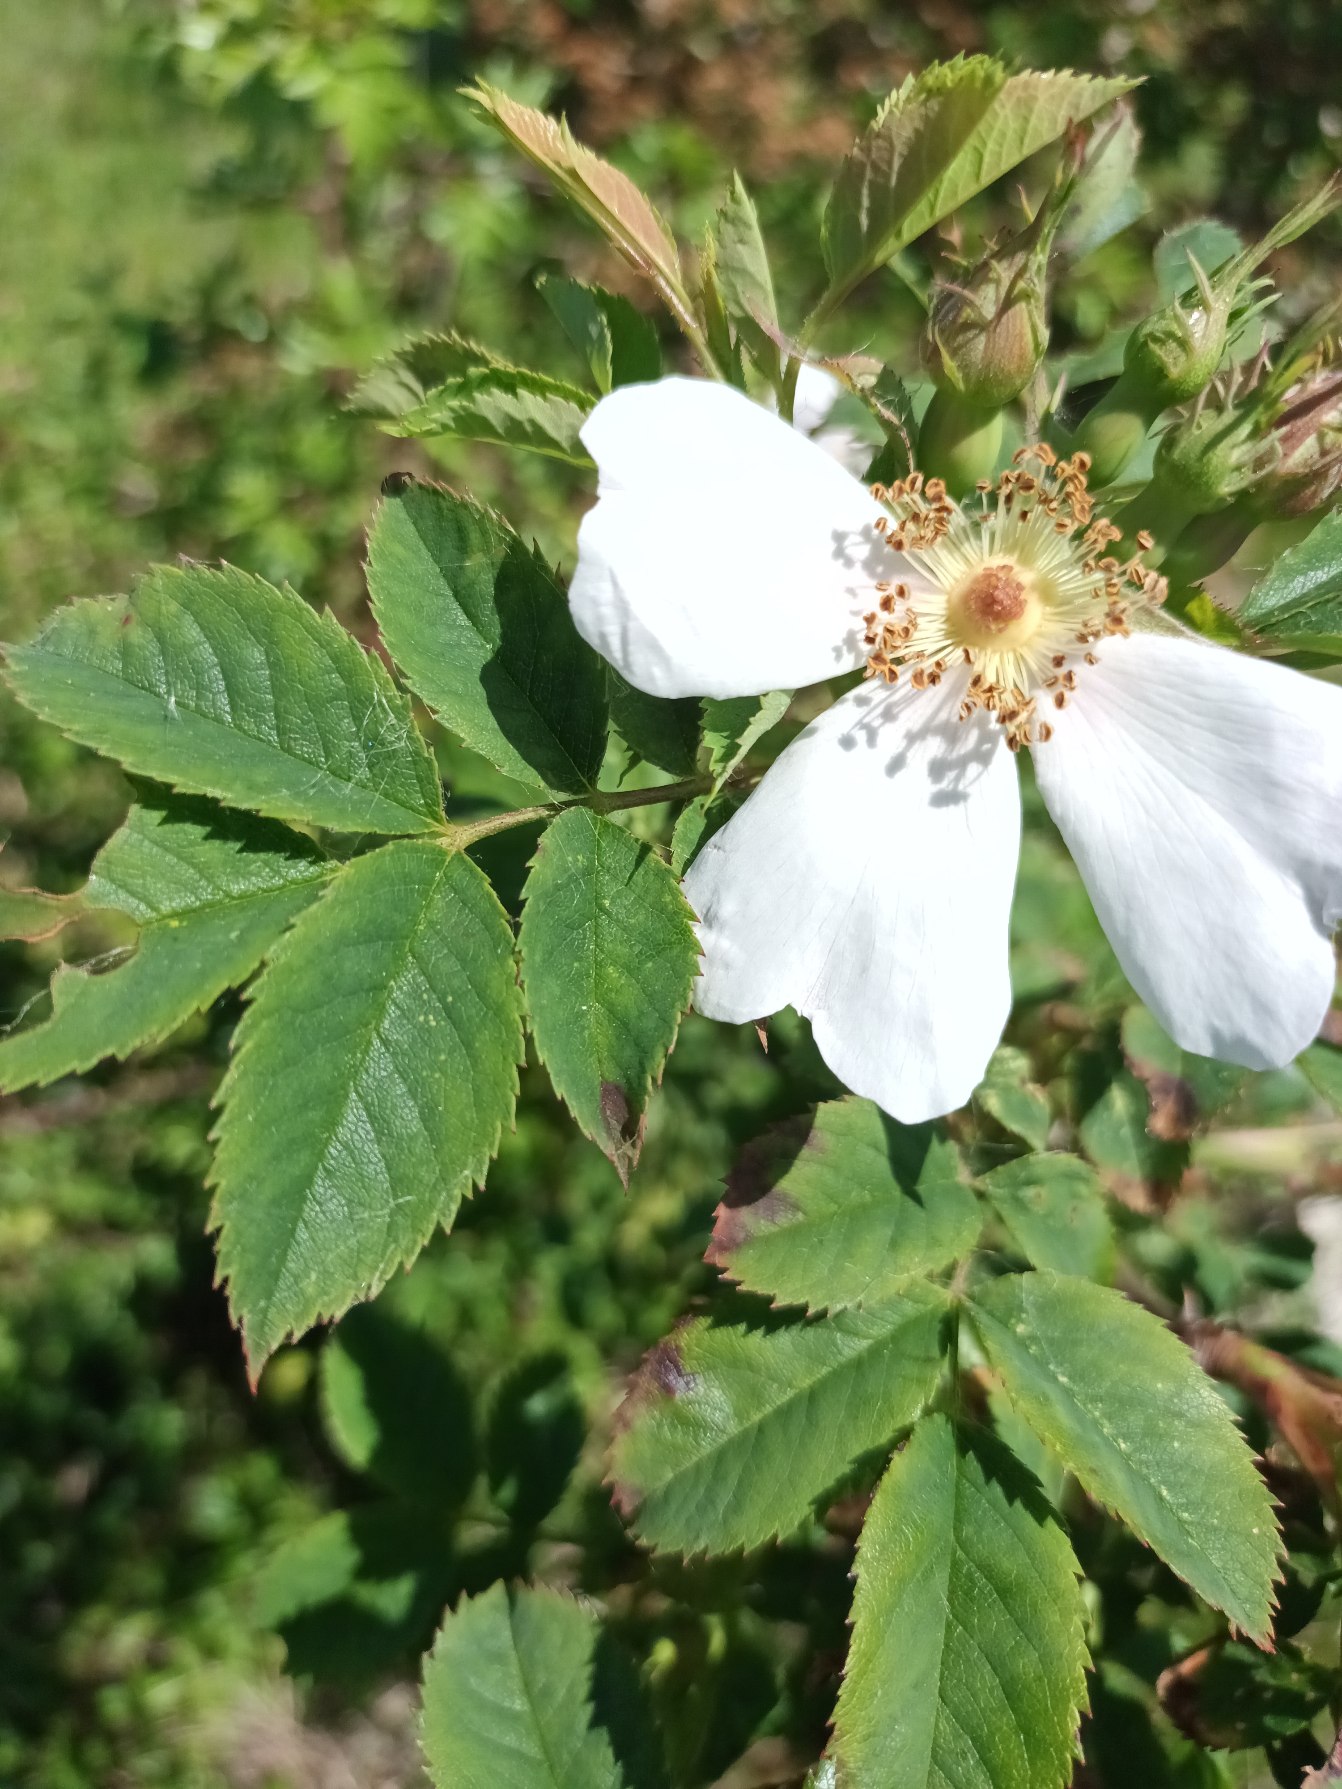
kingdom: Plantae
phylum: Tracheophyta
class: Magnoliopsida
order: Rosales
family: Rosaceae
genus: Rosa
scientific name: Rosa dumalis
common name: Blågrøn rose (underart)
